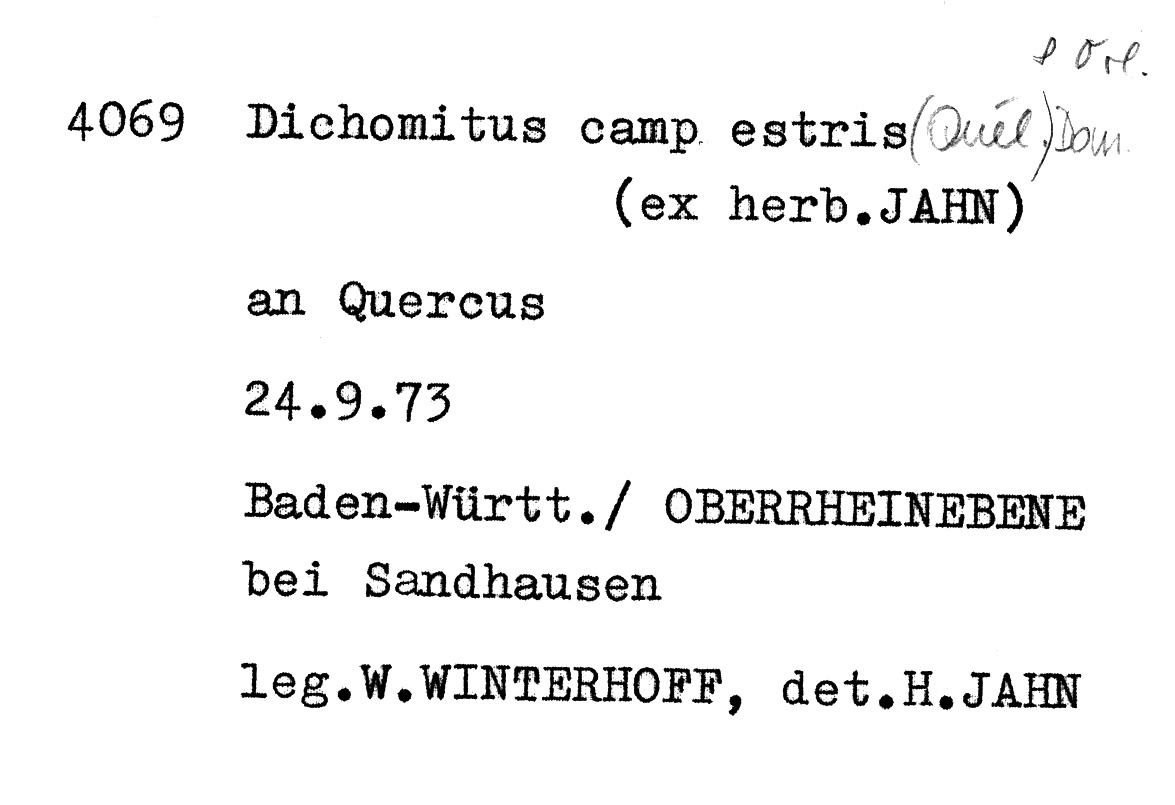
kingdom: Plantae
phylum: Tracheophyta
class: Magnoliopsida
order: Fagales
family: Fagaceae
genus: Quercus
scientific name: Quercus
